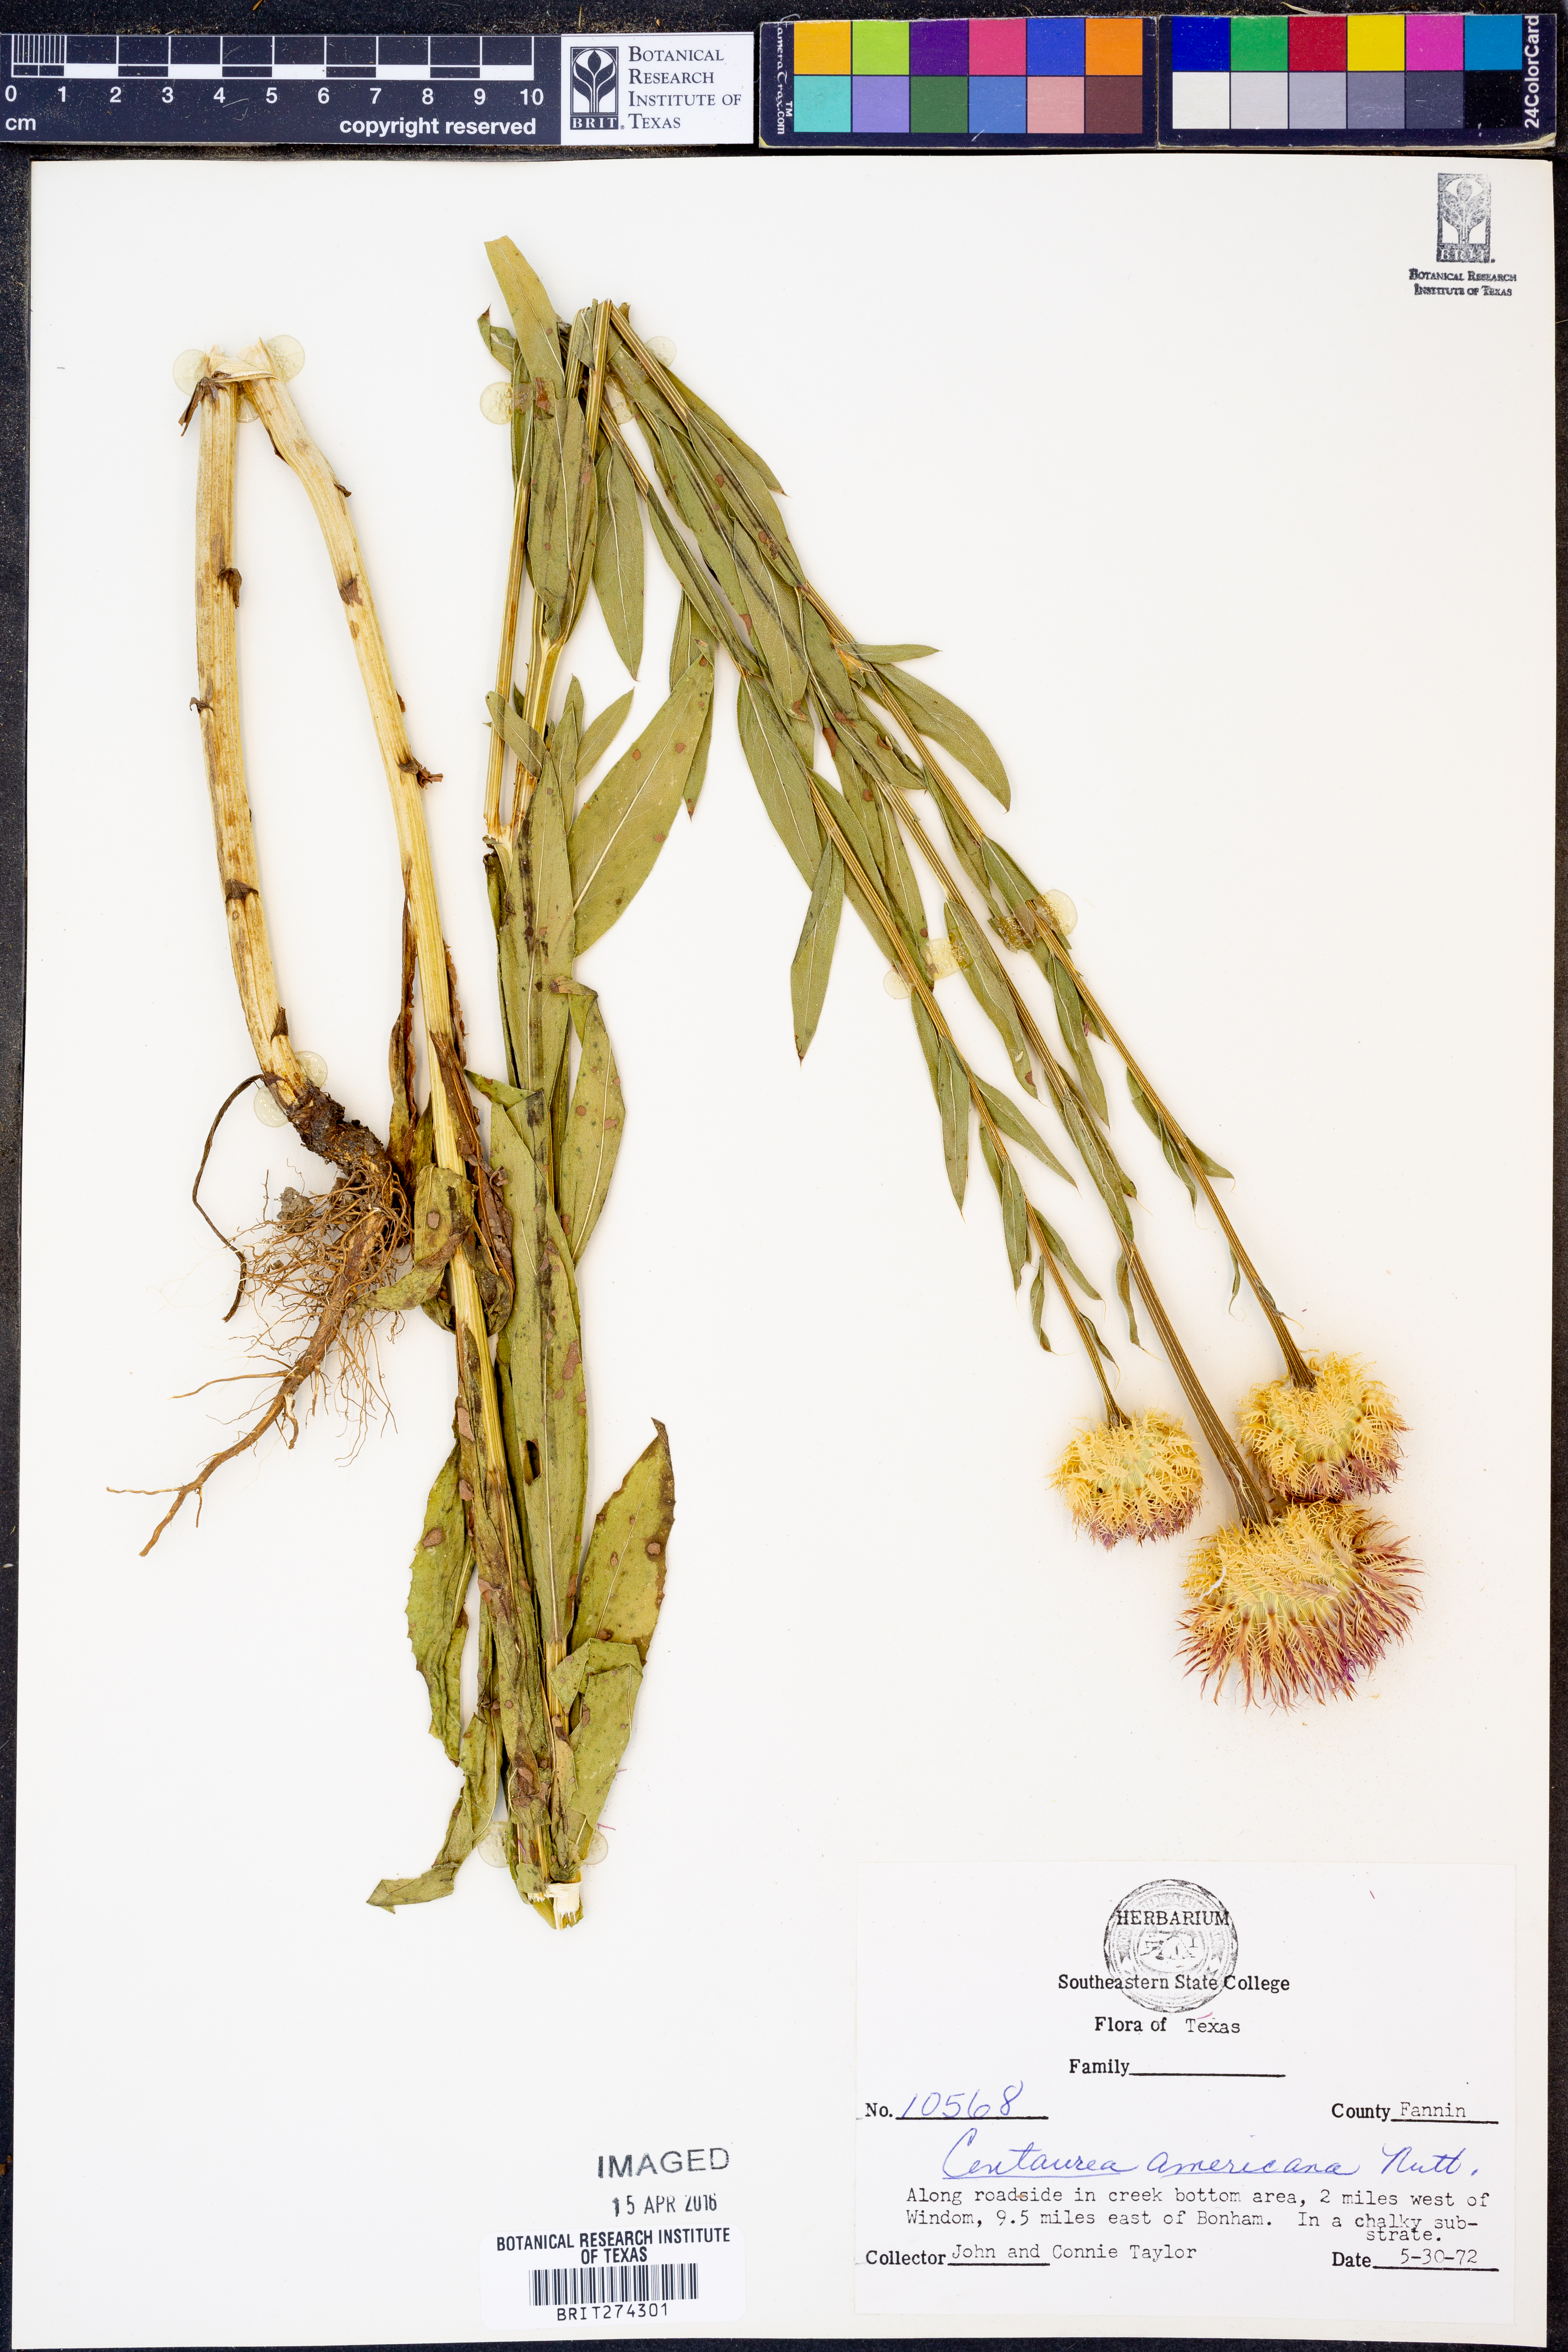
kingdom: Plantae
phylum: Tracheophyta
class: Magnoliopsida
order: Asterales
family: Asteraceae
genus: Plectocephalus
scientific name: Plectocephalus americanus
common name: American basket-flower
